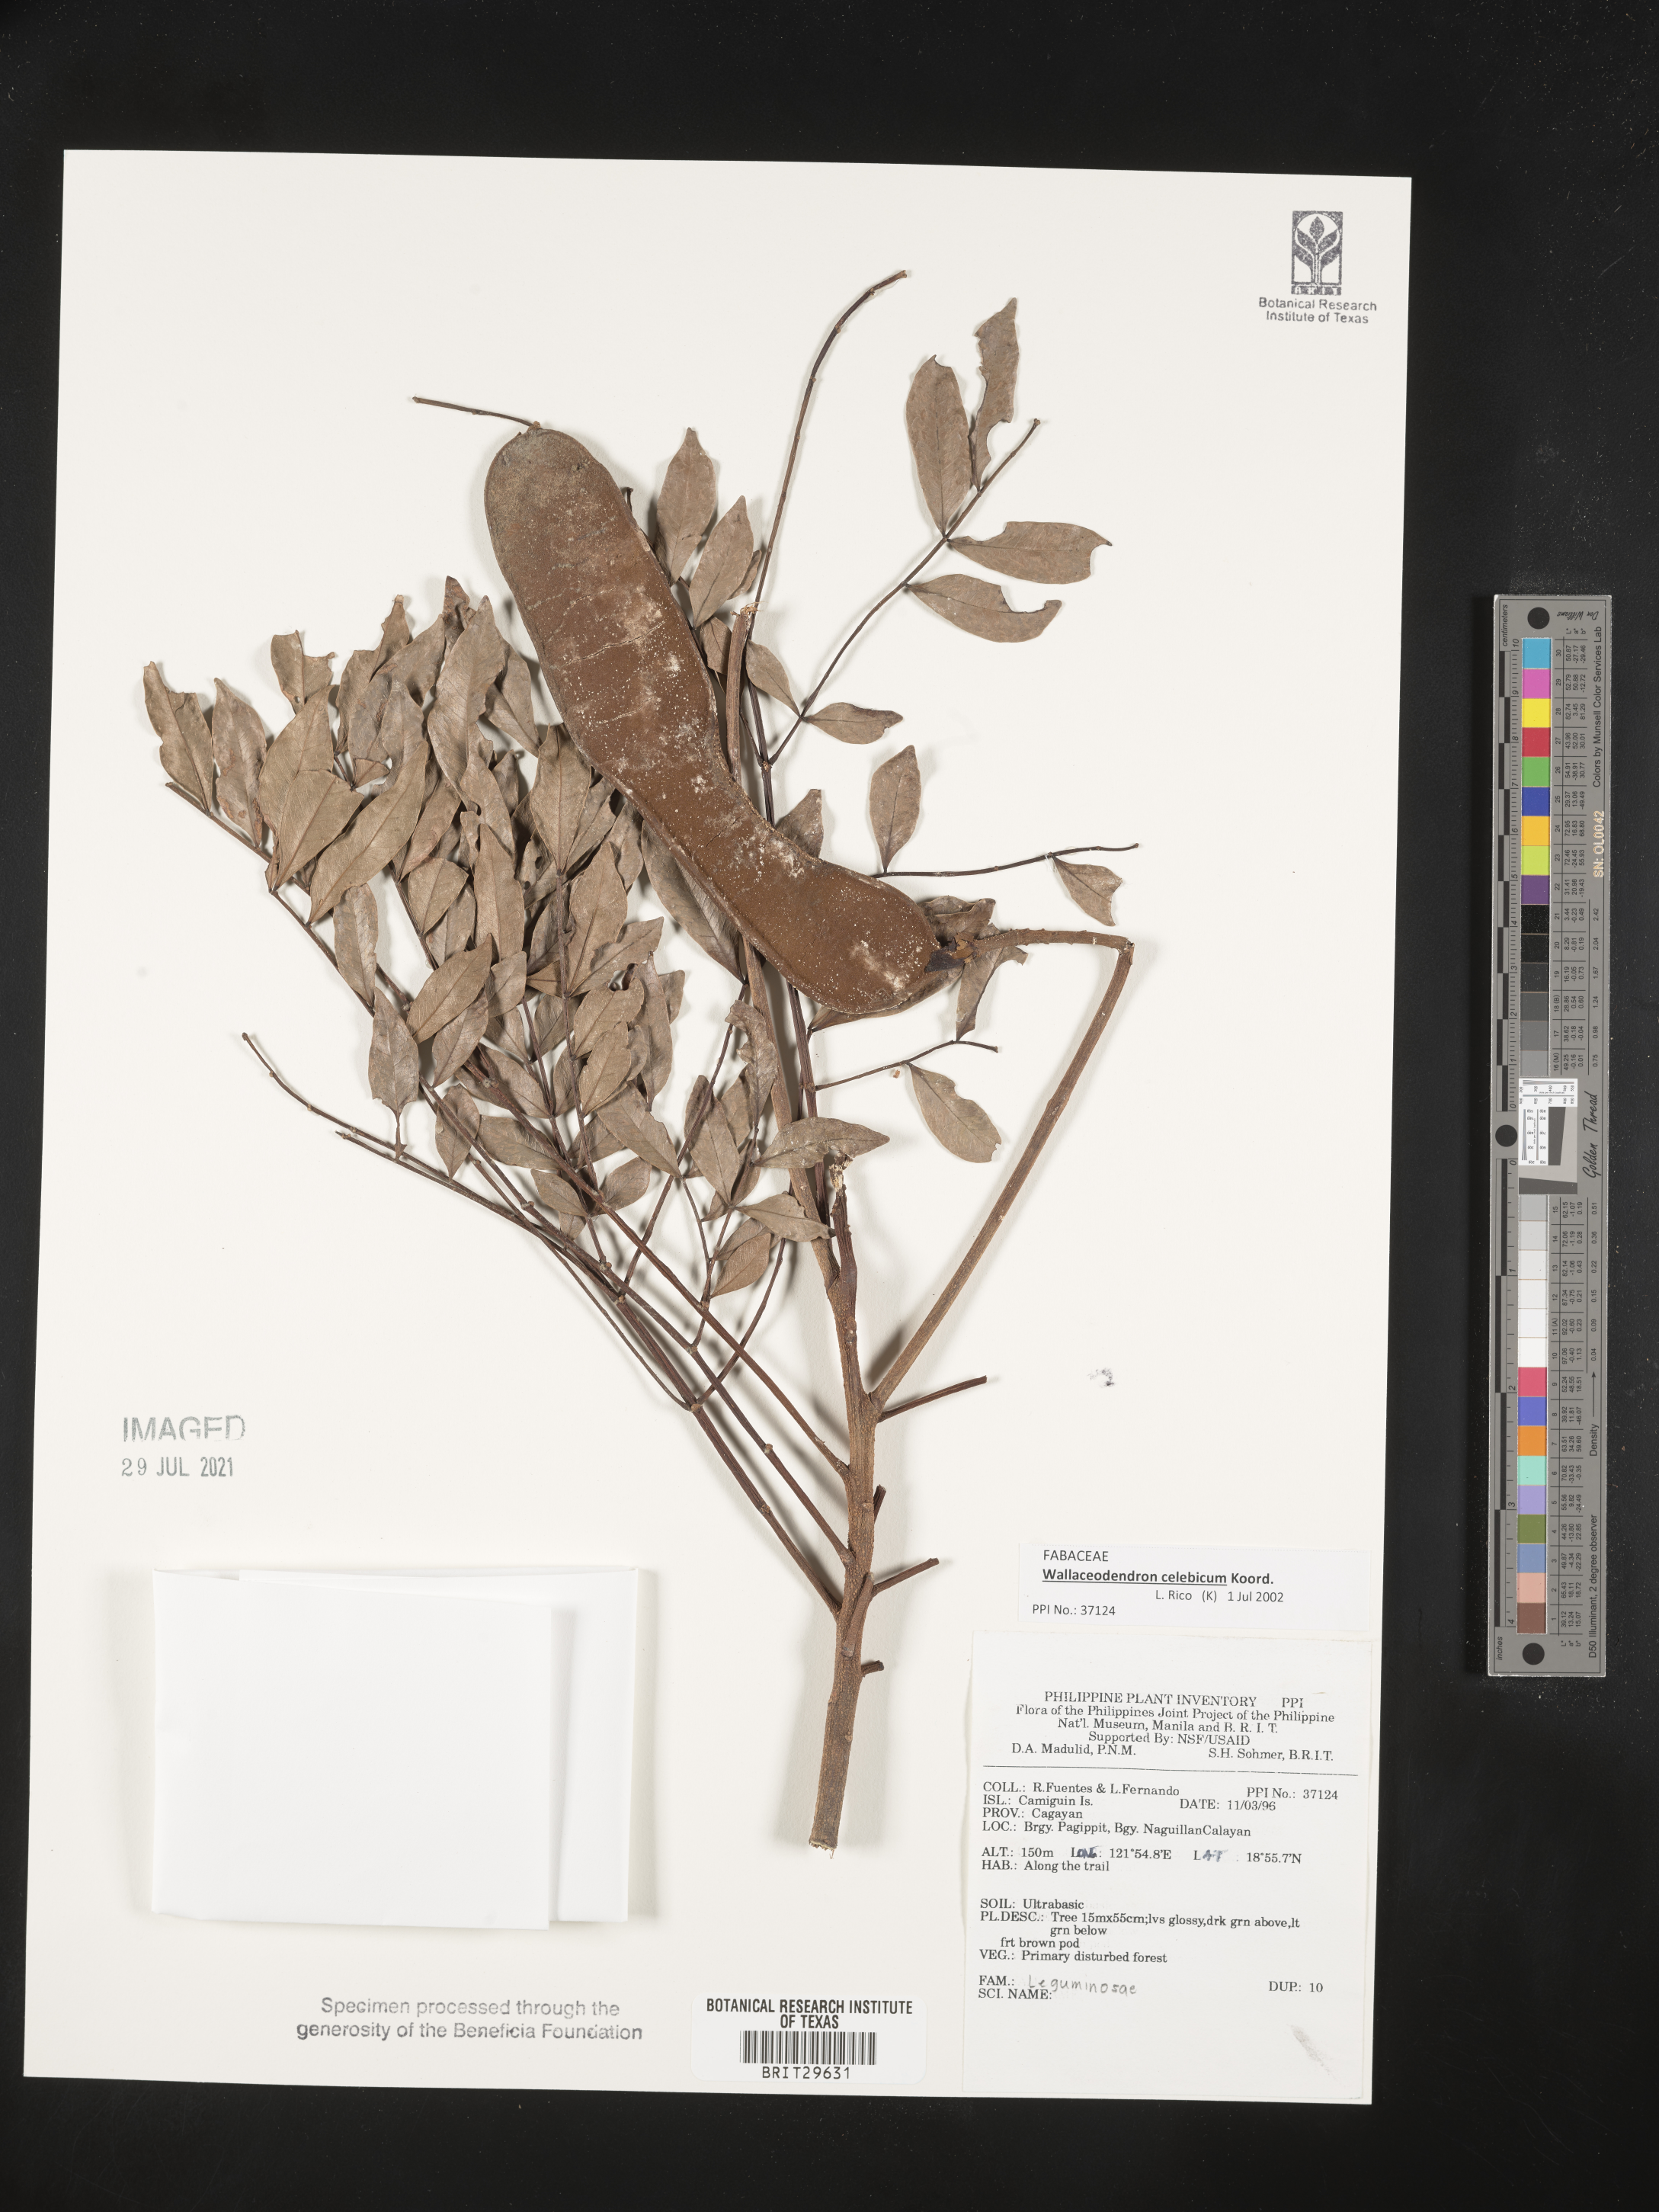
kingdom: Plantae
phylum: Tracheophyta
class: Magnoliopsida
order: Fabales
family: Fabaceae
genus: Wallaceodendron
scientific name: Wallaceodendron celebicum
